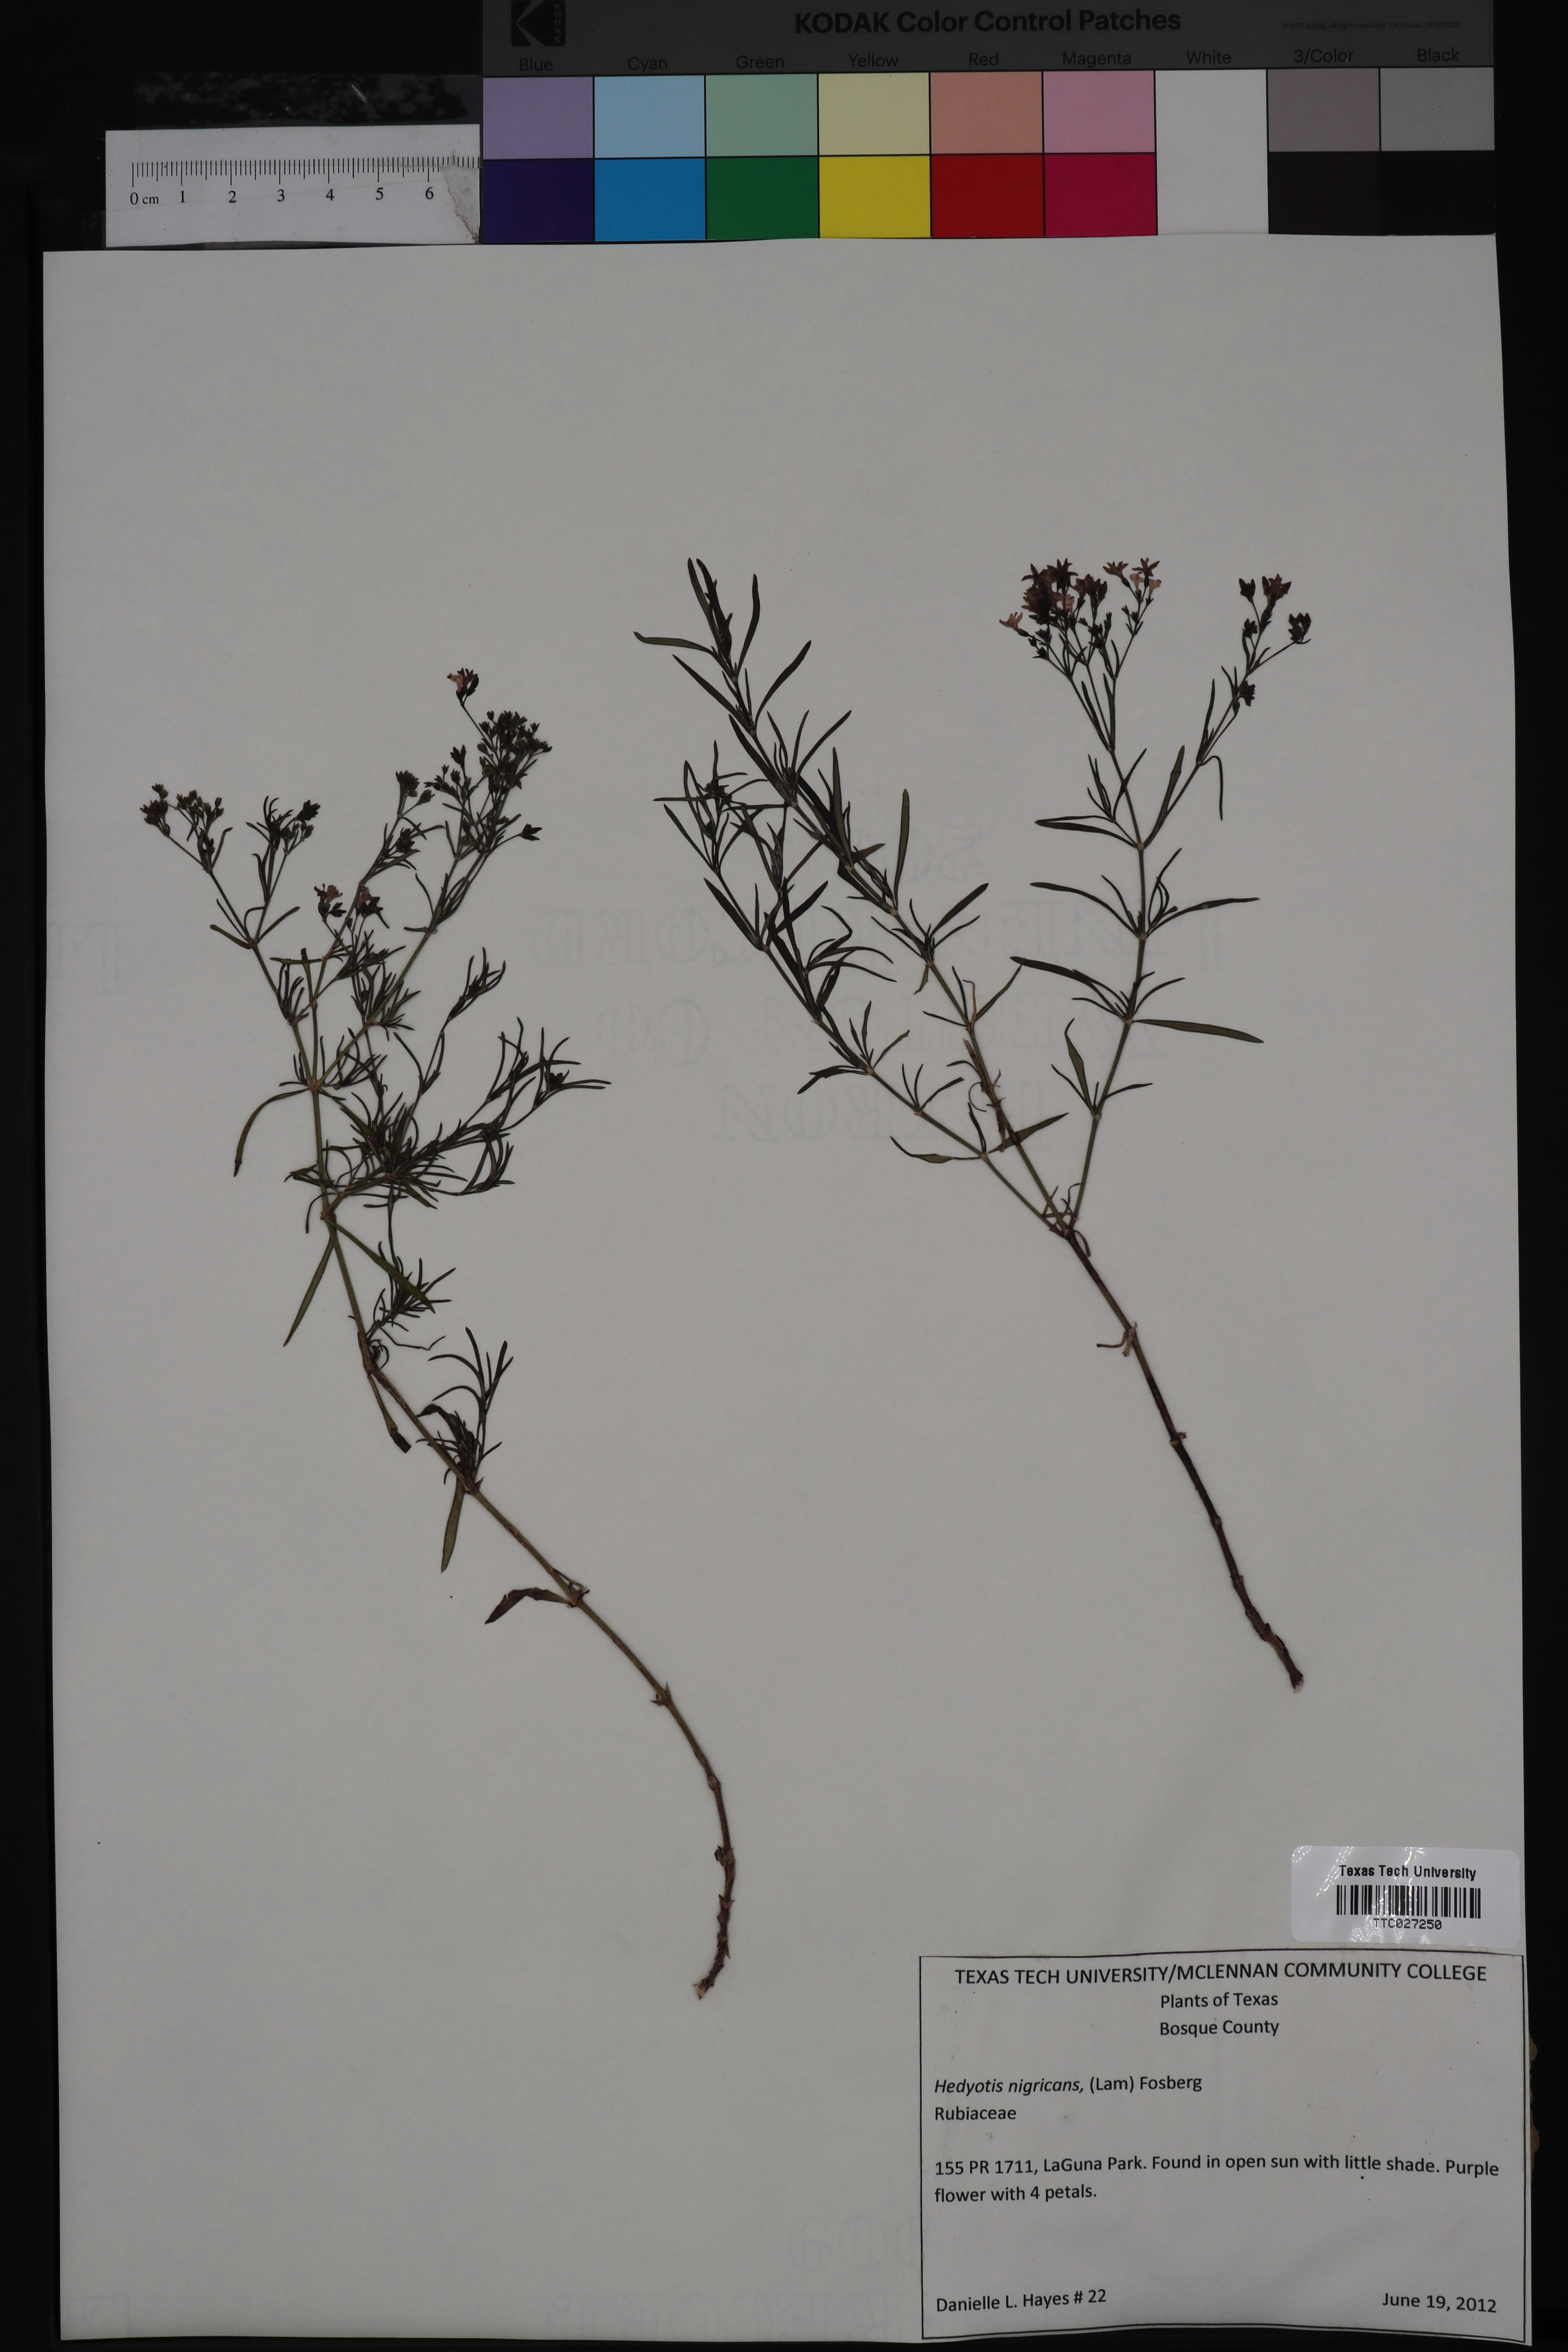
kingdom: Plantae
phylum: Tracheophyta
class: Magnoliopsida
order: Gentianales
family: Rubiaceae
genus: Stenaria
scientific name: Stenaria nigricans
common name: Diamondflowers
